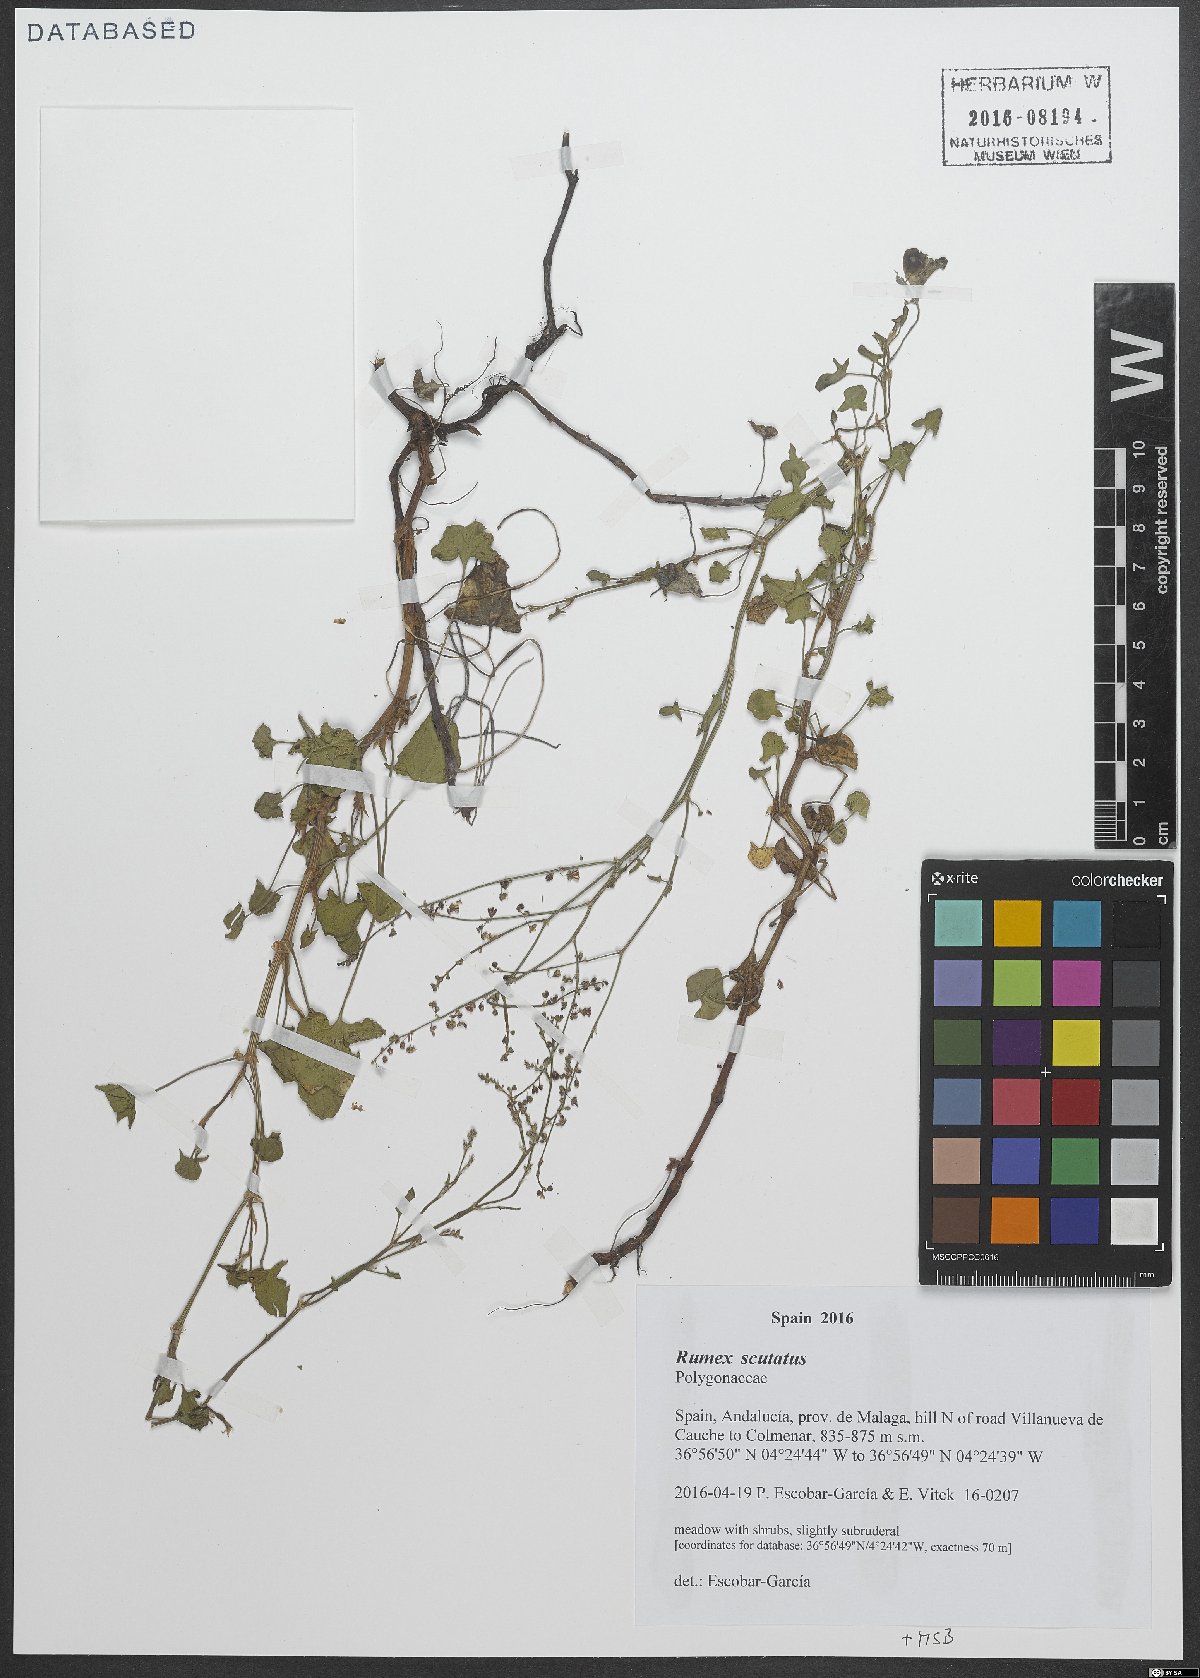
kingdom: Plantae
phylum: Tracheophyta
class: Magnoliopsida
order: Caryophyllales
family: Polygonaceae
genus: Rumex
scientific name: Rumex scutatus
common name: French sorrel
